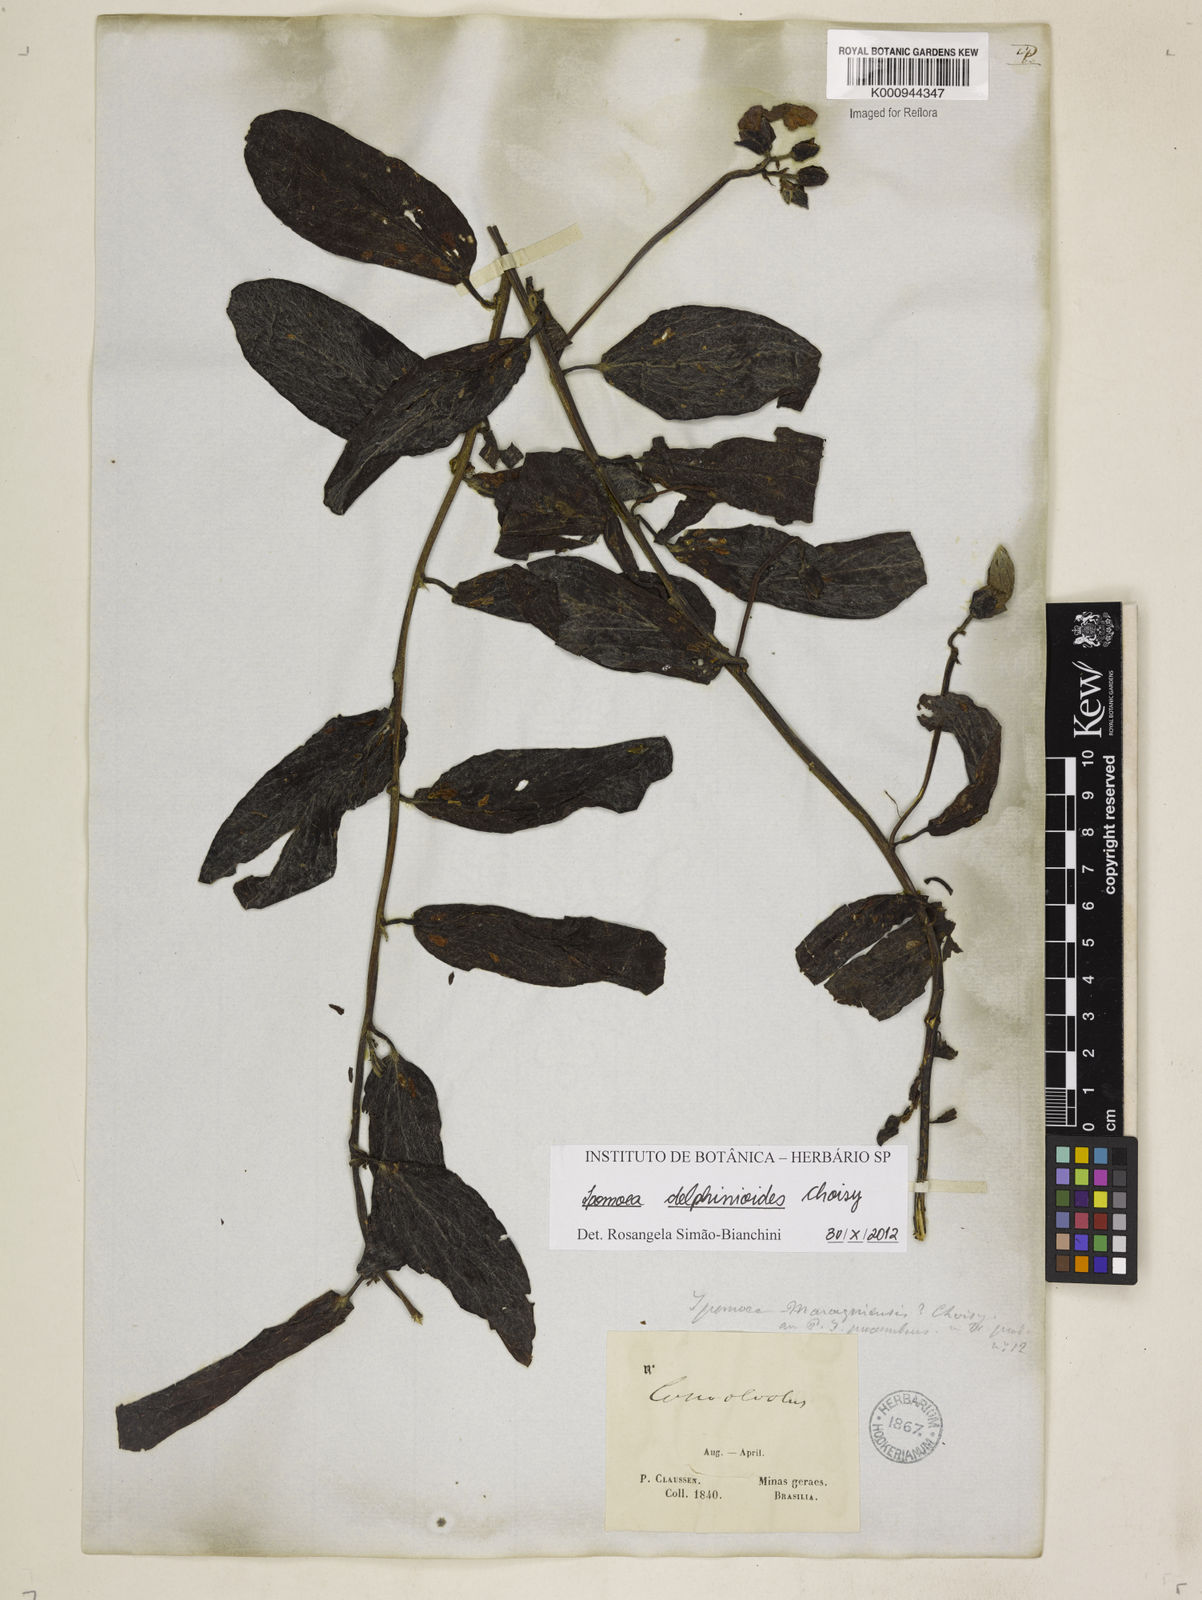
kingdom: Plantae
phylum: Tracheophyta
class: Magnoliopsida
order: Solanales
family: Convolvulaceae
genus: Ipomoea
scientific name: Ipomoea delphinioides
